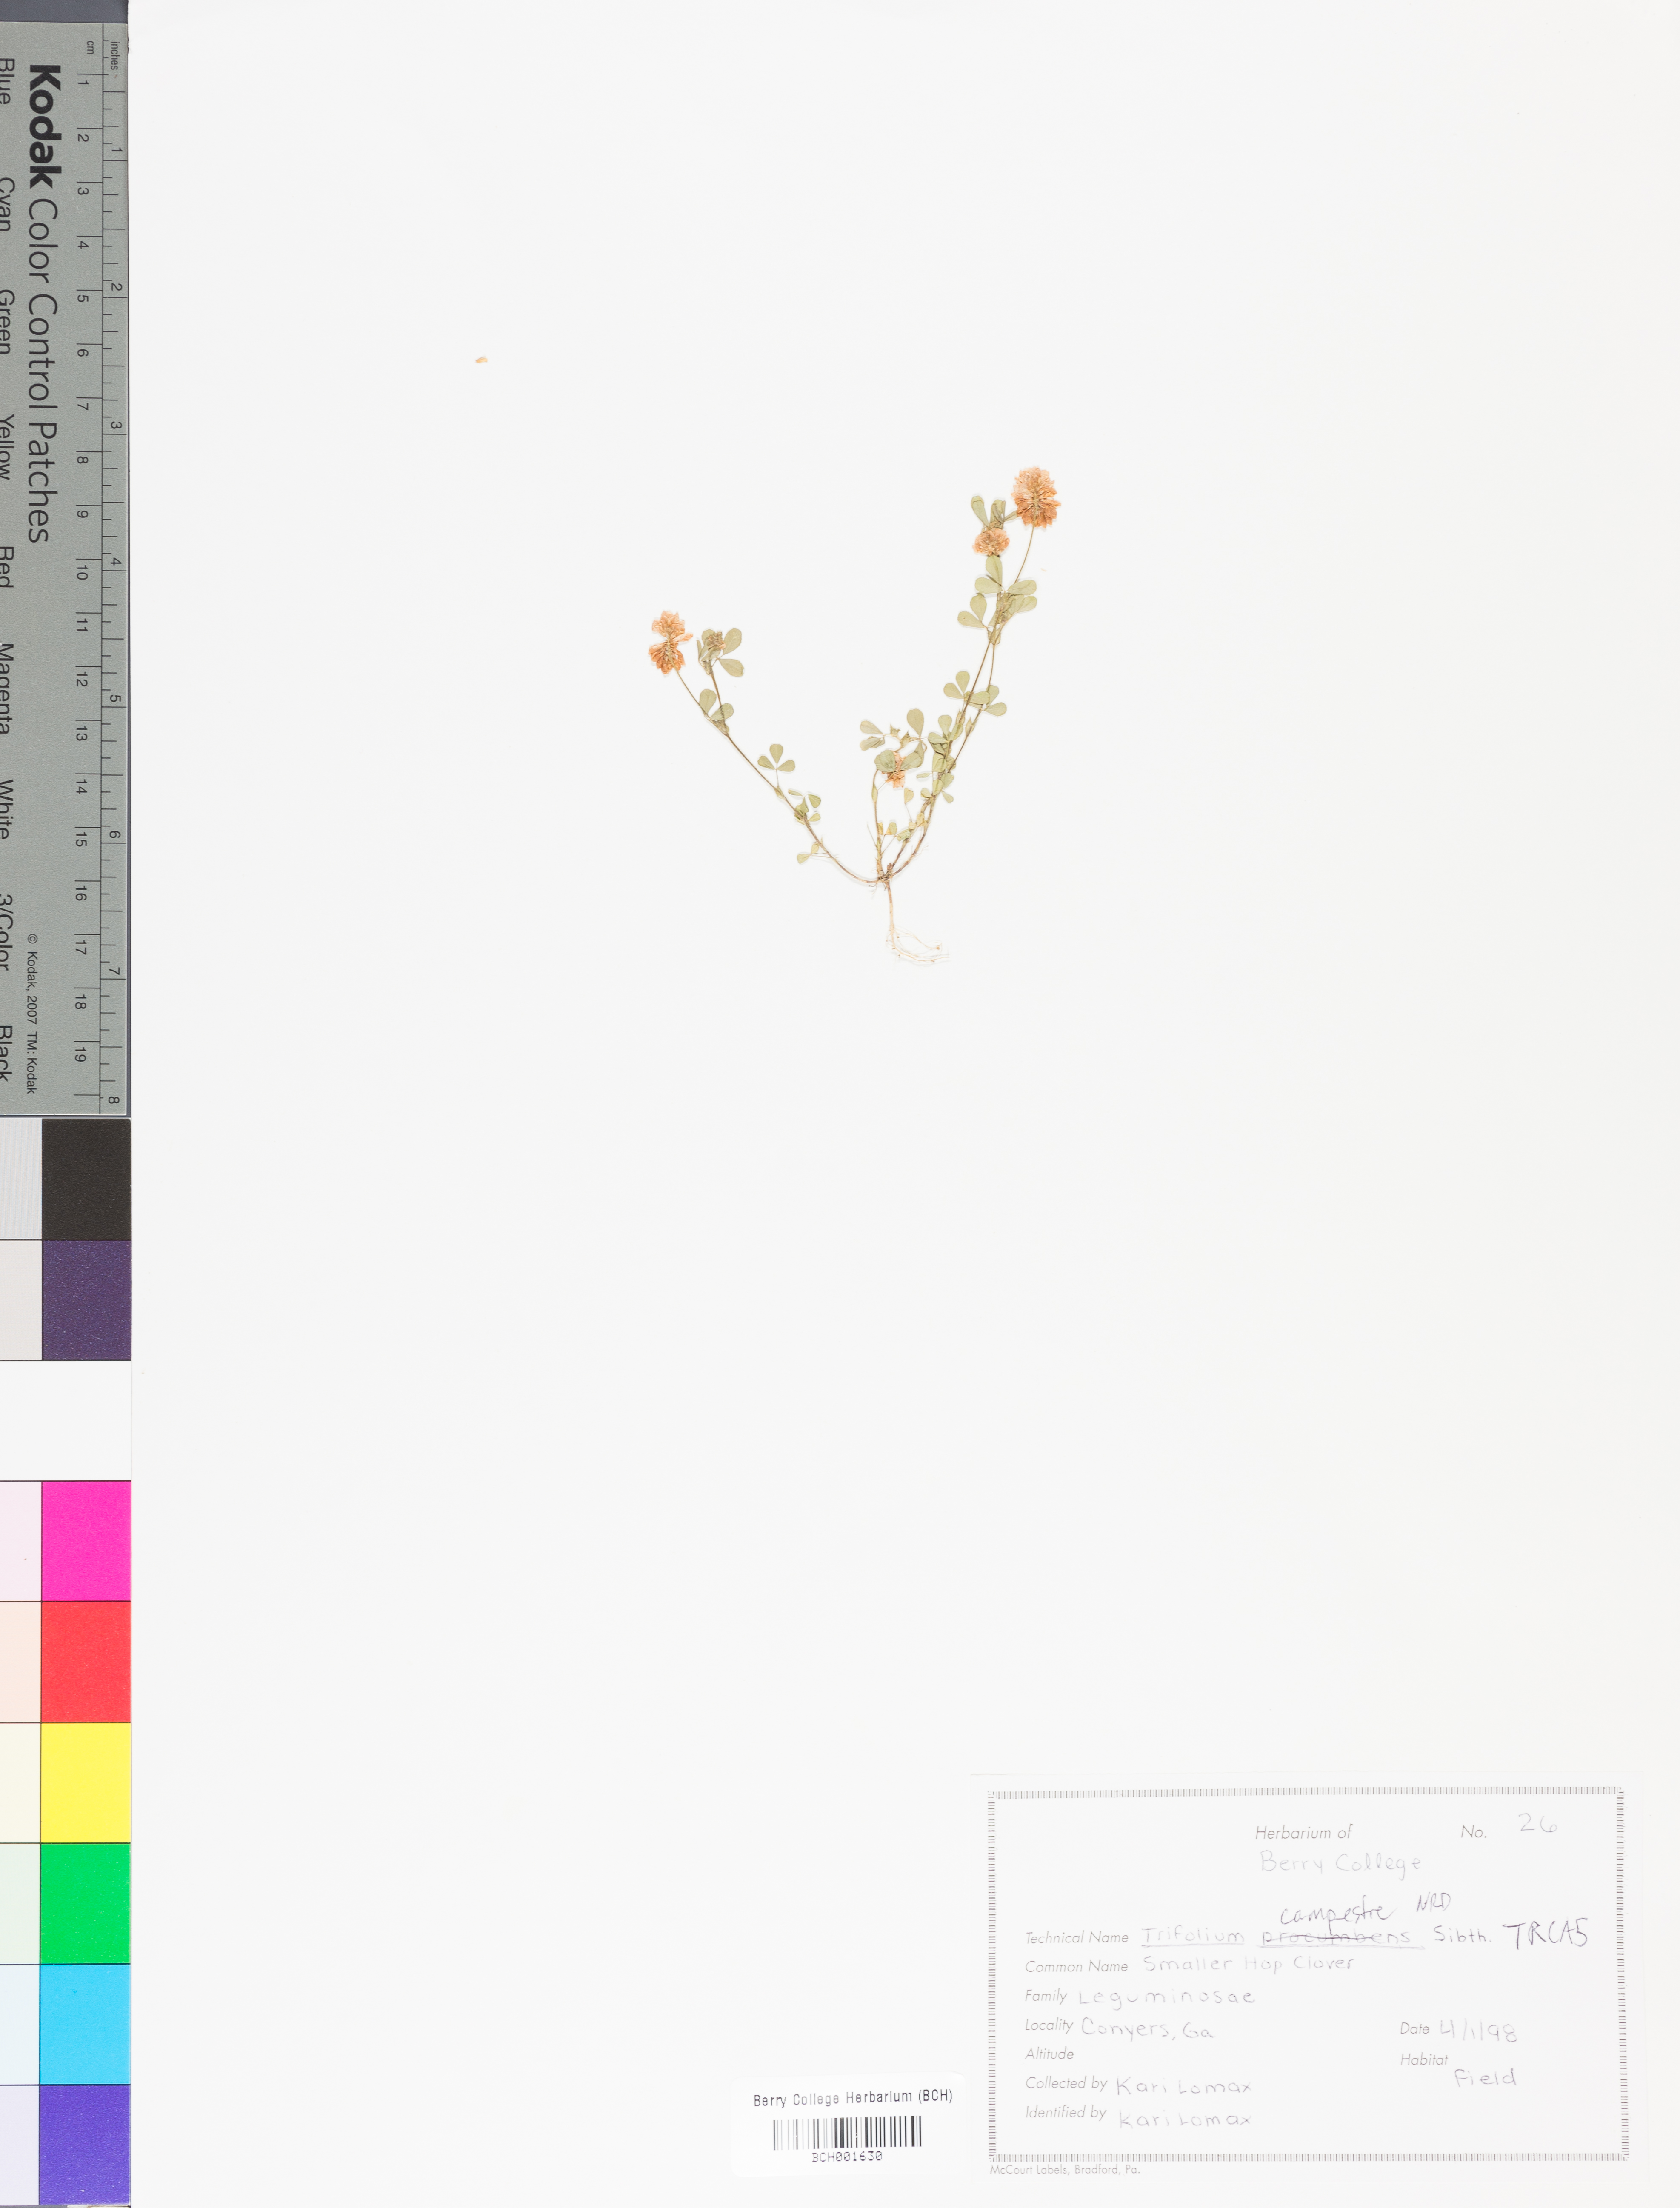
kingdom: Plantae
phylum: Tracheophyta
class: Magnoliopsida
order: Fabales
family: Fabaceae
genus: Trifolium
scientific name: Trifolium campestre
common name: Field clover
